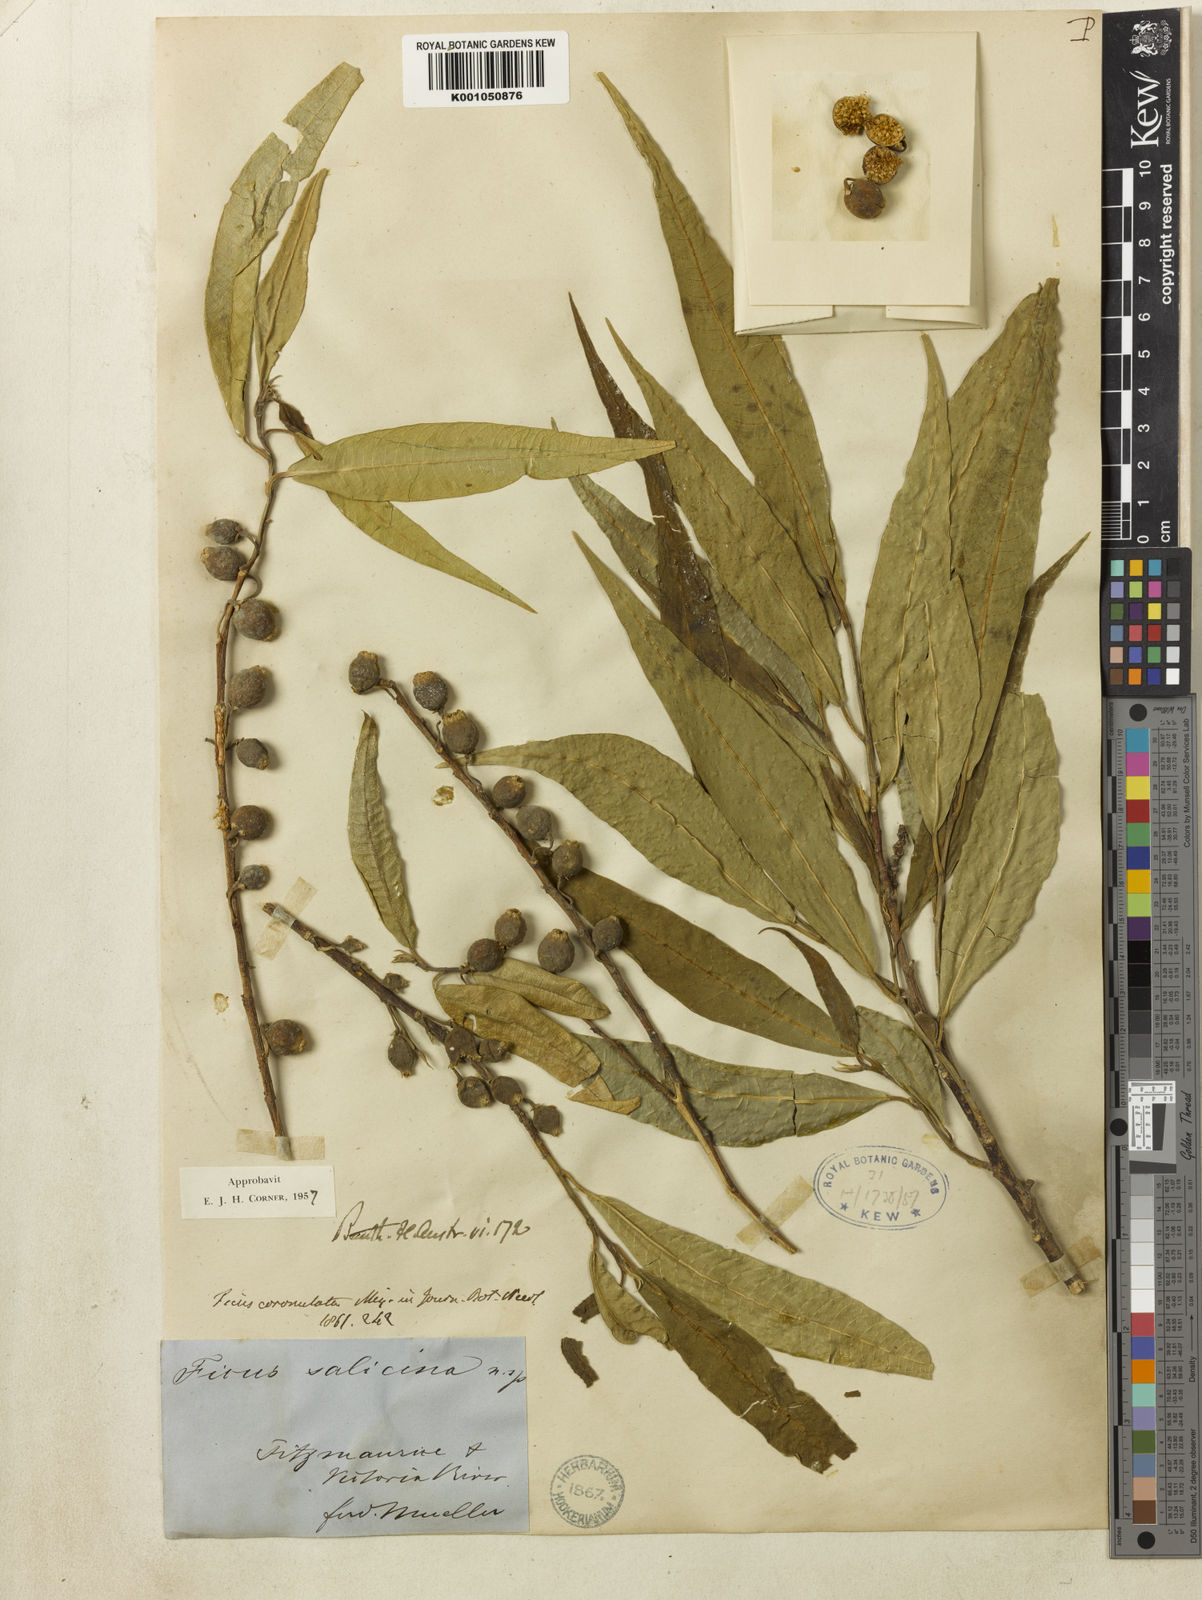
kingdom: Plantae
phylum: Tracheophyta
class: Magnoliopsida
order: Rosales
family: Moraceae
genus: Ficus
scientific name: Ficus coronulata
